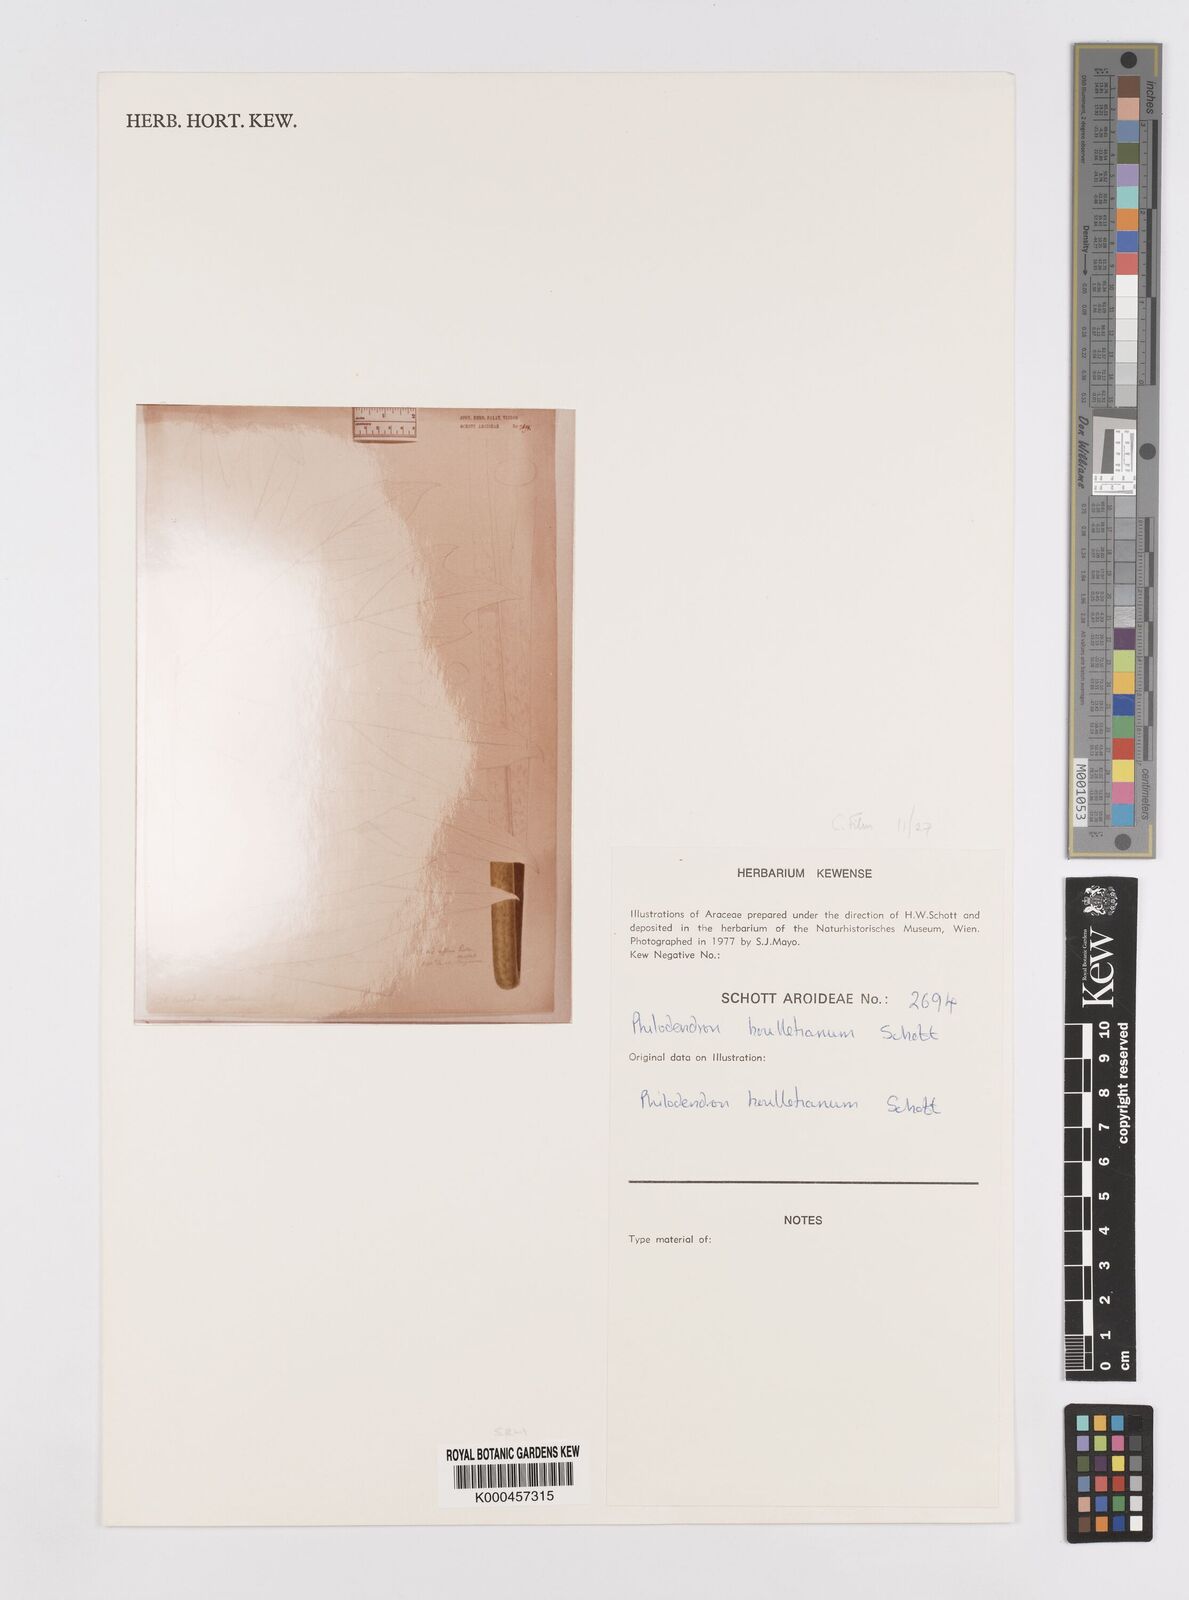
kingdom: Plantae
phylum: Tracheophyta
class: Liliopsida
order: Alismatales
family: Araceae
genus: Philodendron
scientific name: Philodendron houlletianum
